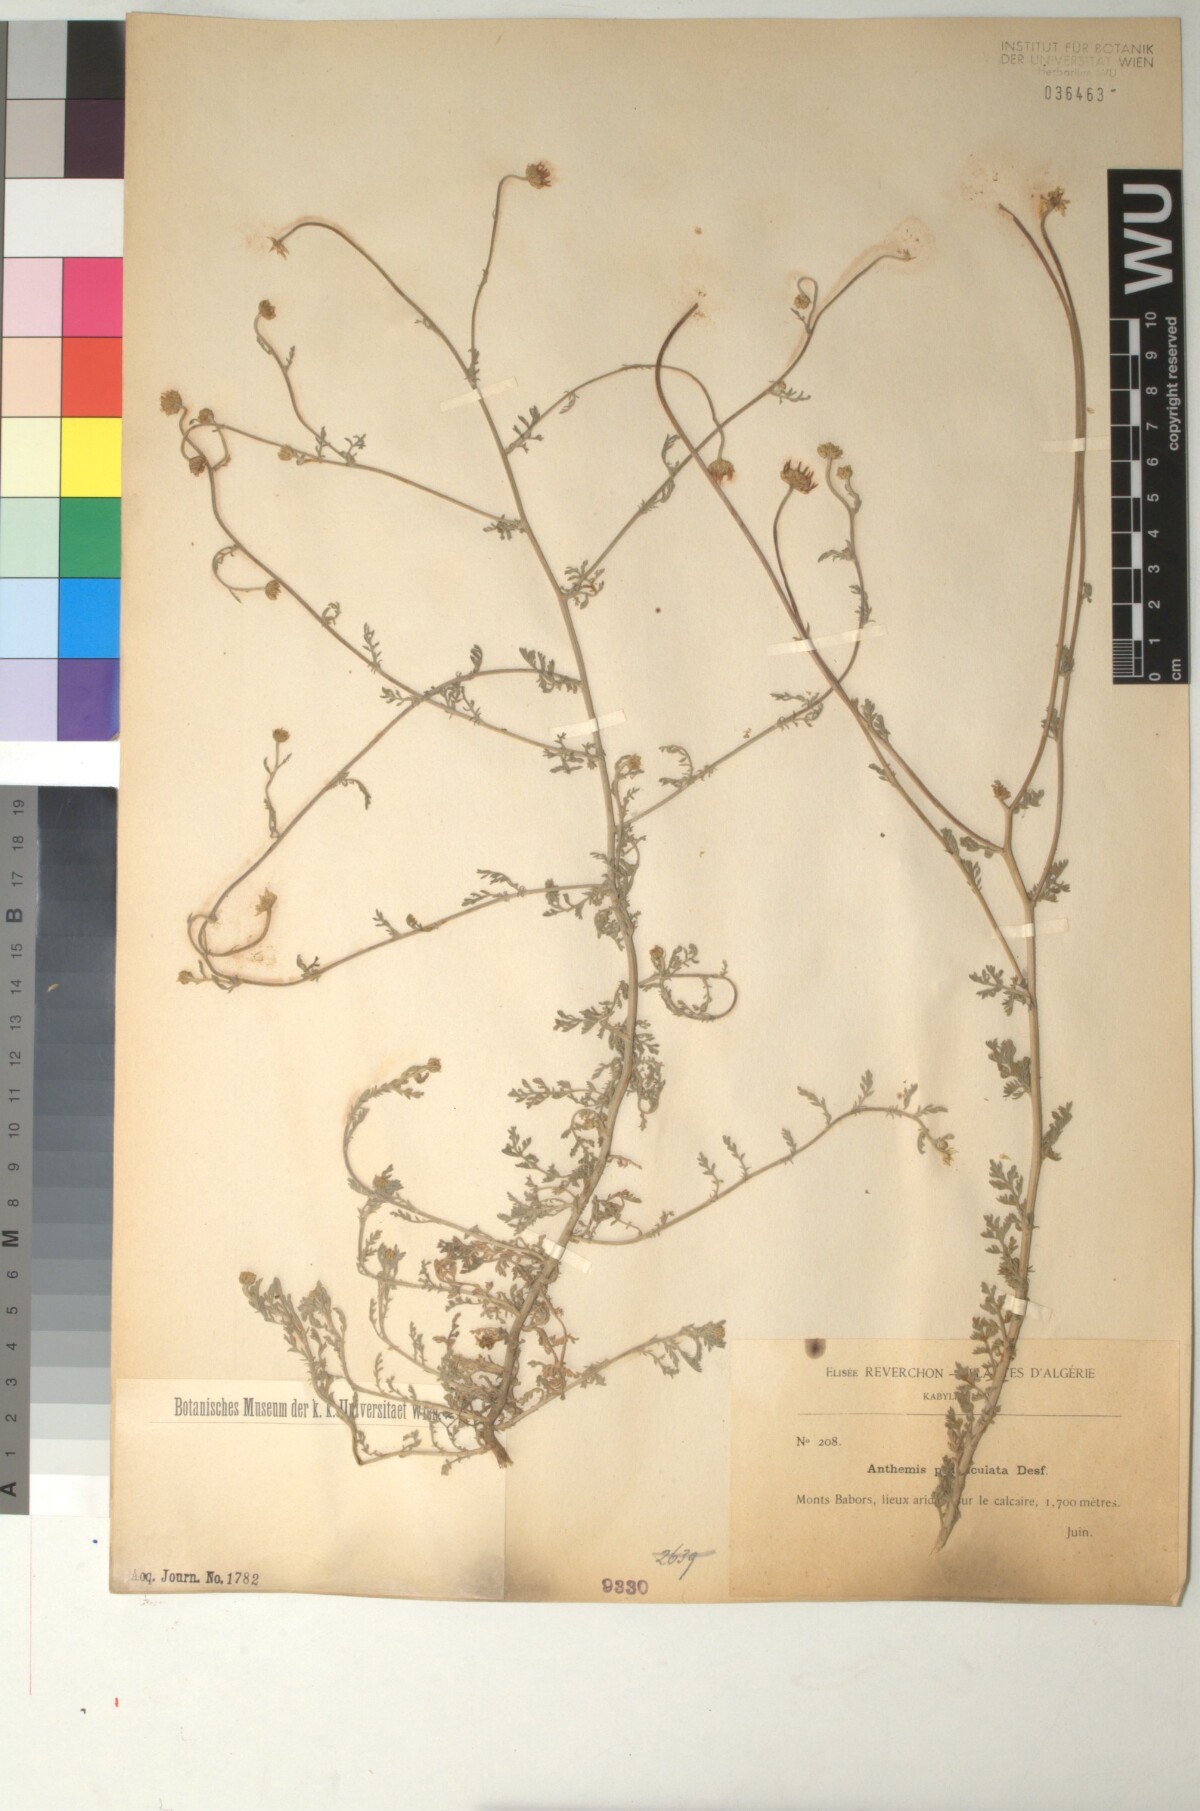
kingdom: Plantae
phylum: Tracheophyta
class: Magnoliopsida
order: Asterales
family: Asteraceae
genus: Anthemis
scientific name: Anthemis pedunculata
